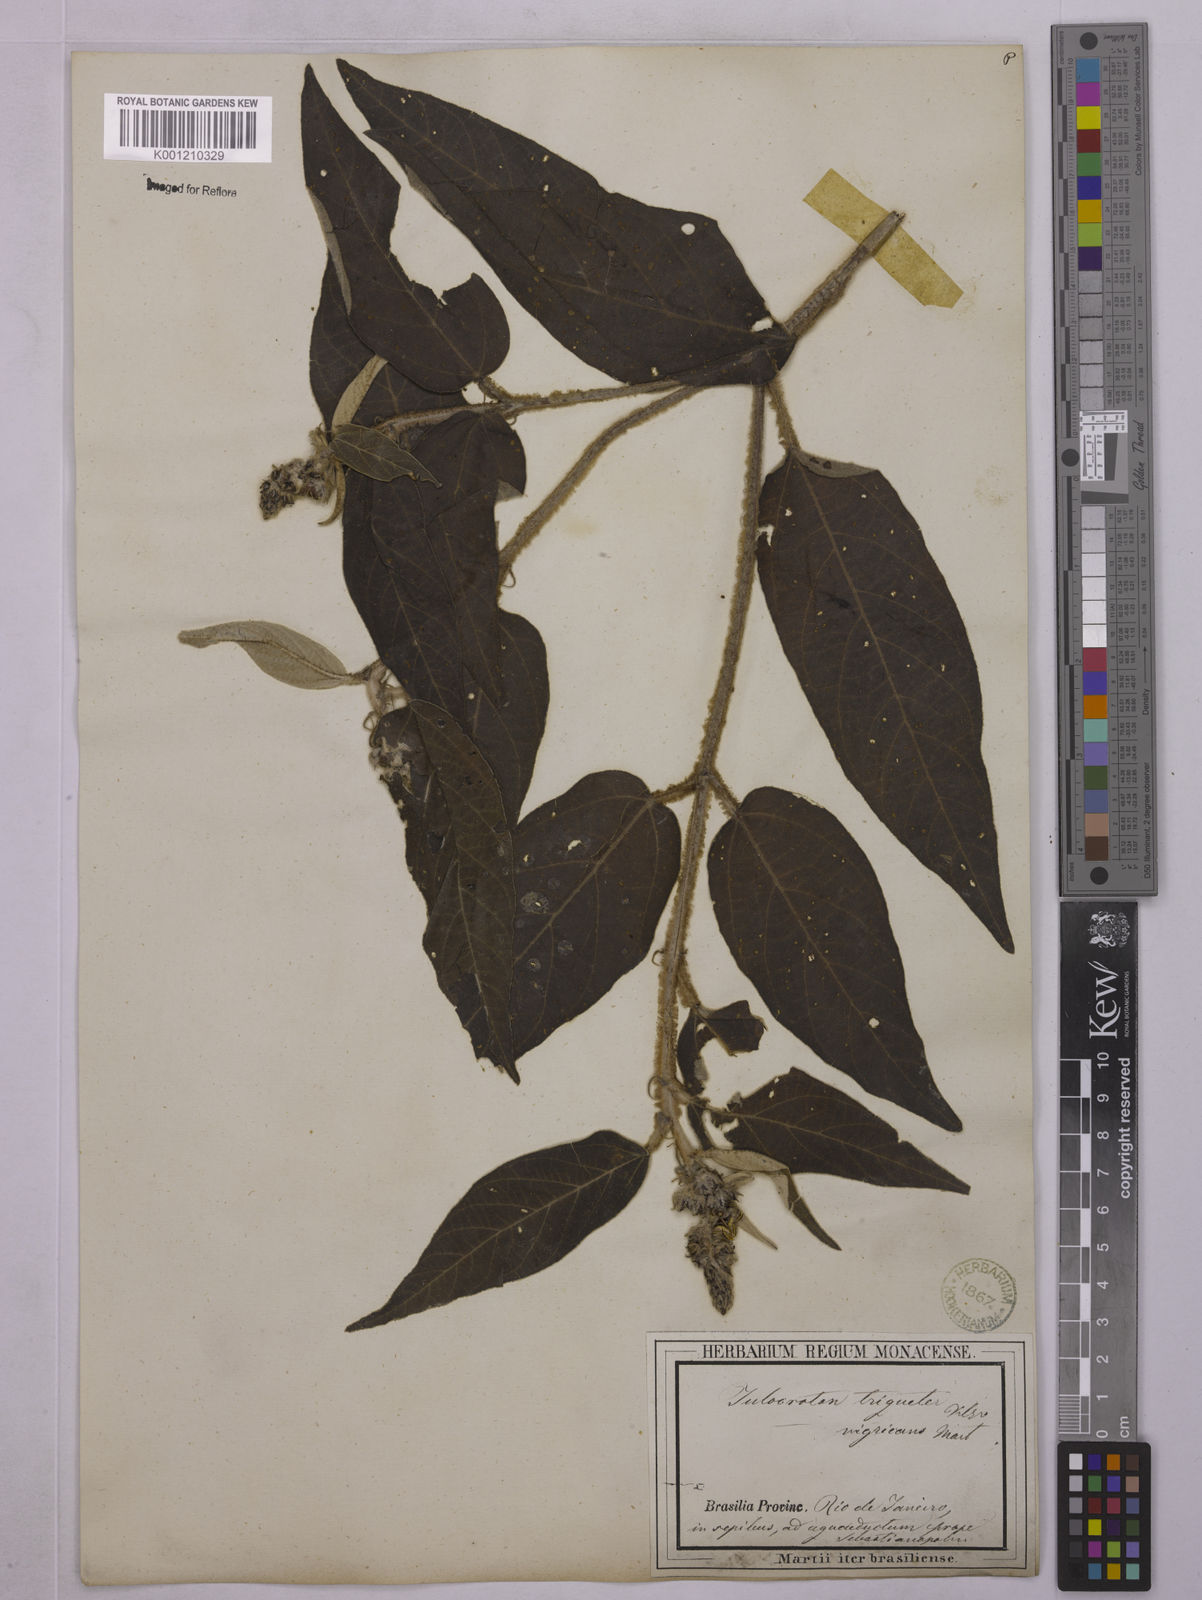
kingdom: Plantae
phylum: Tracheophyta
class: Magnoliopsida
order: Malpighiales
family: Euphorbiaceae
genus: Croton
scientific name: Croton gnaphaloides
